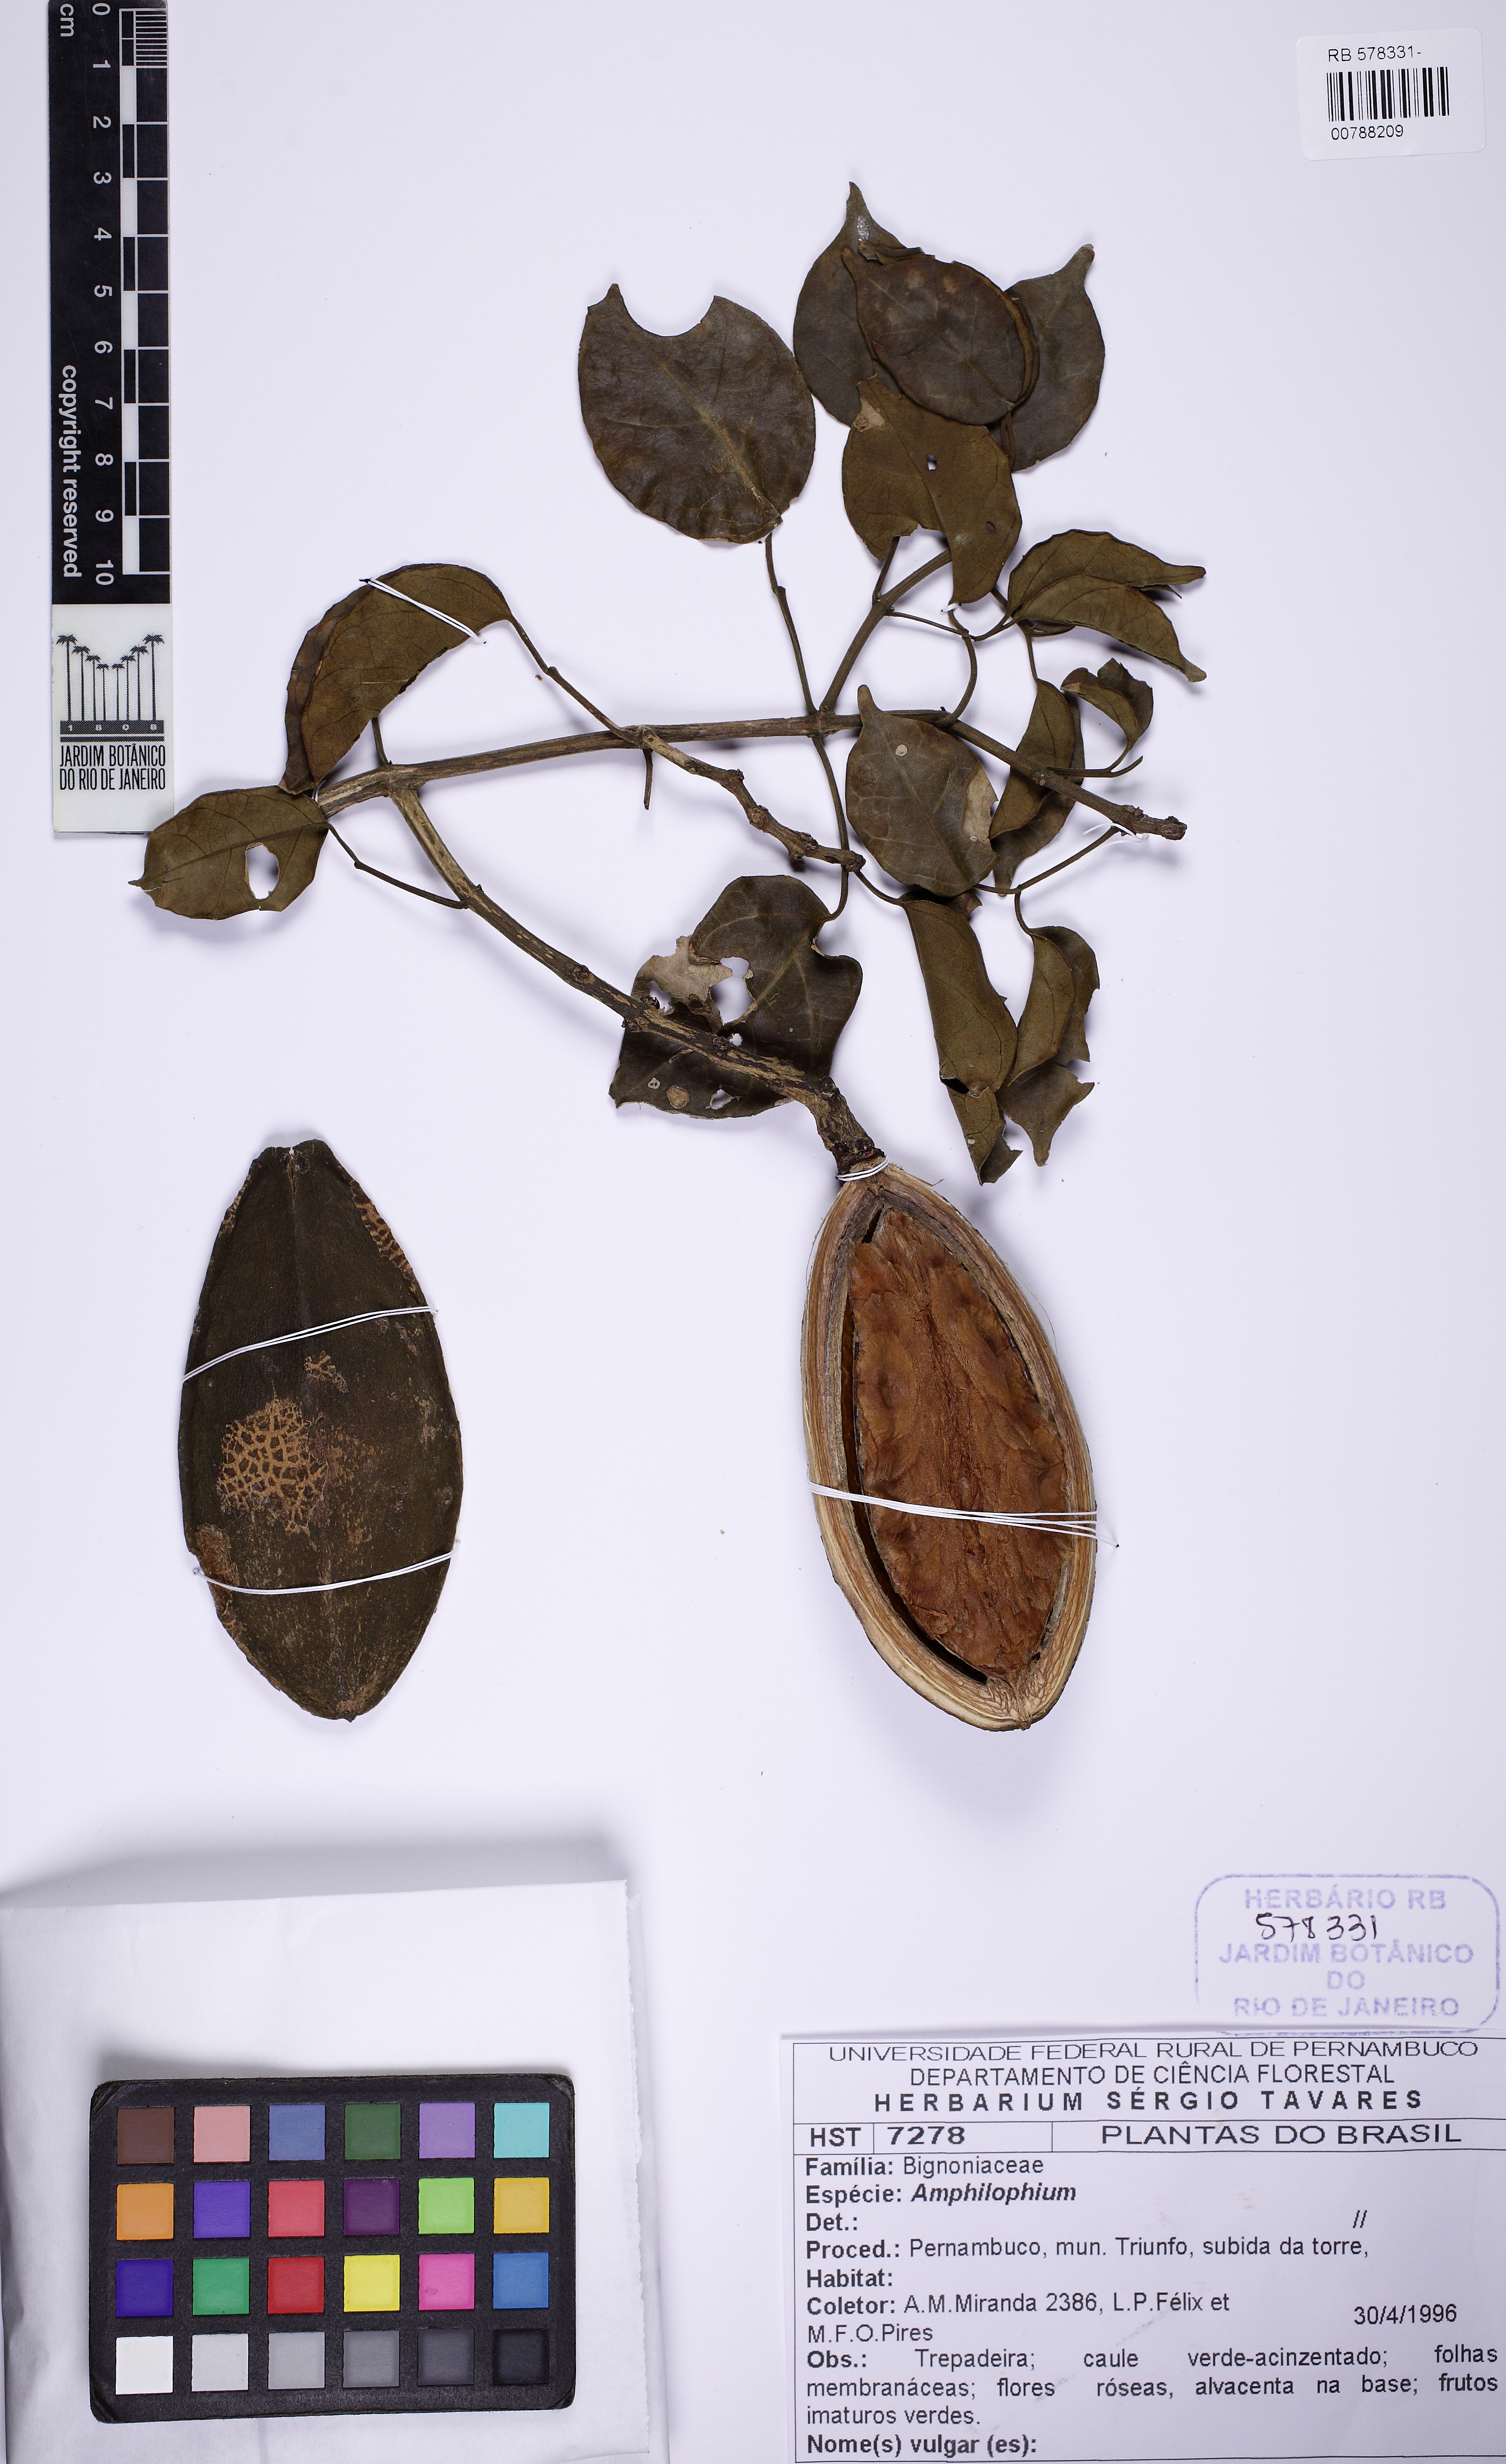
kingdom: Plantae
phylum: Tracheophyta
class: Magnoliopsida
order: Lamiales
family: Bignoniaceae
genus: Amphilophium
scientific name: Amphilophium
